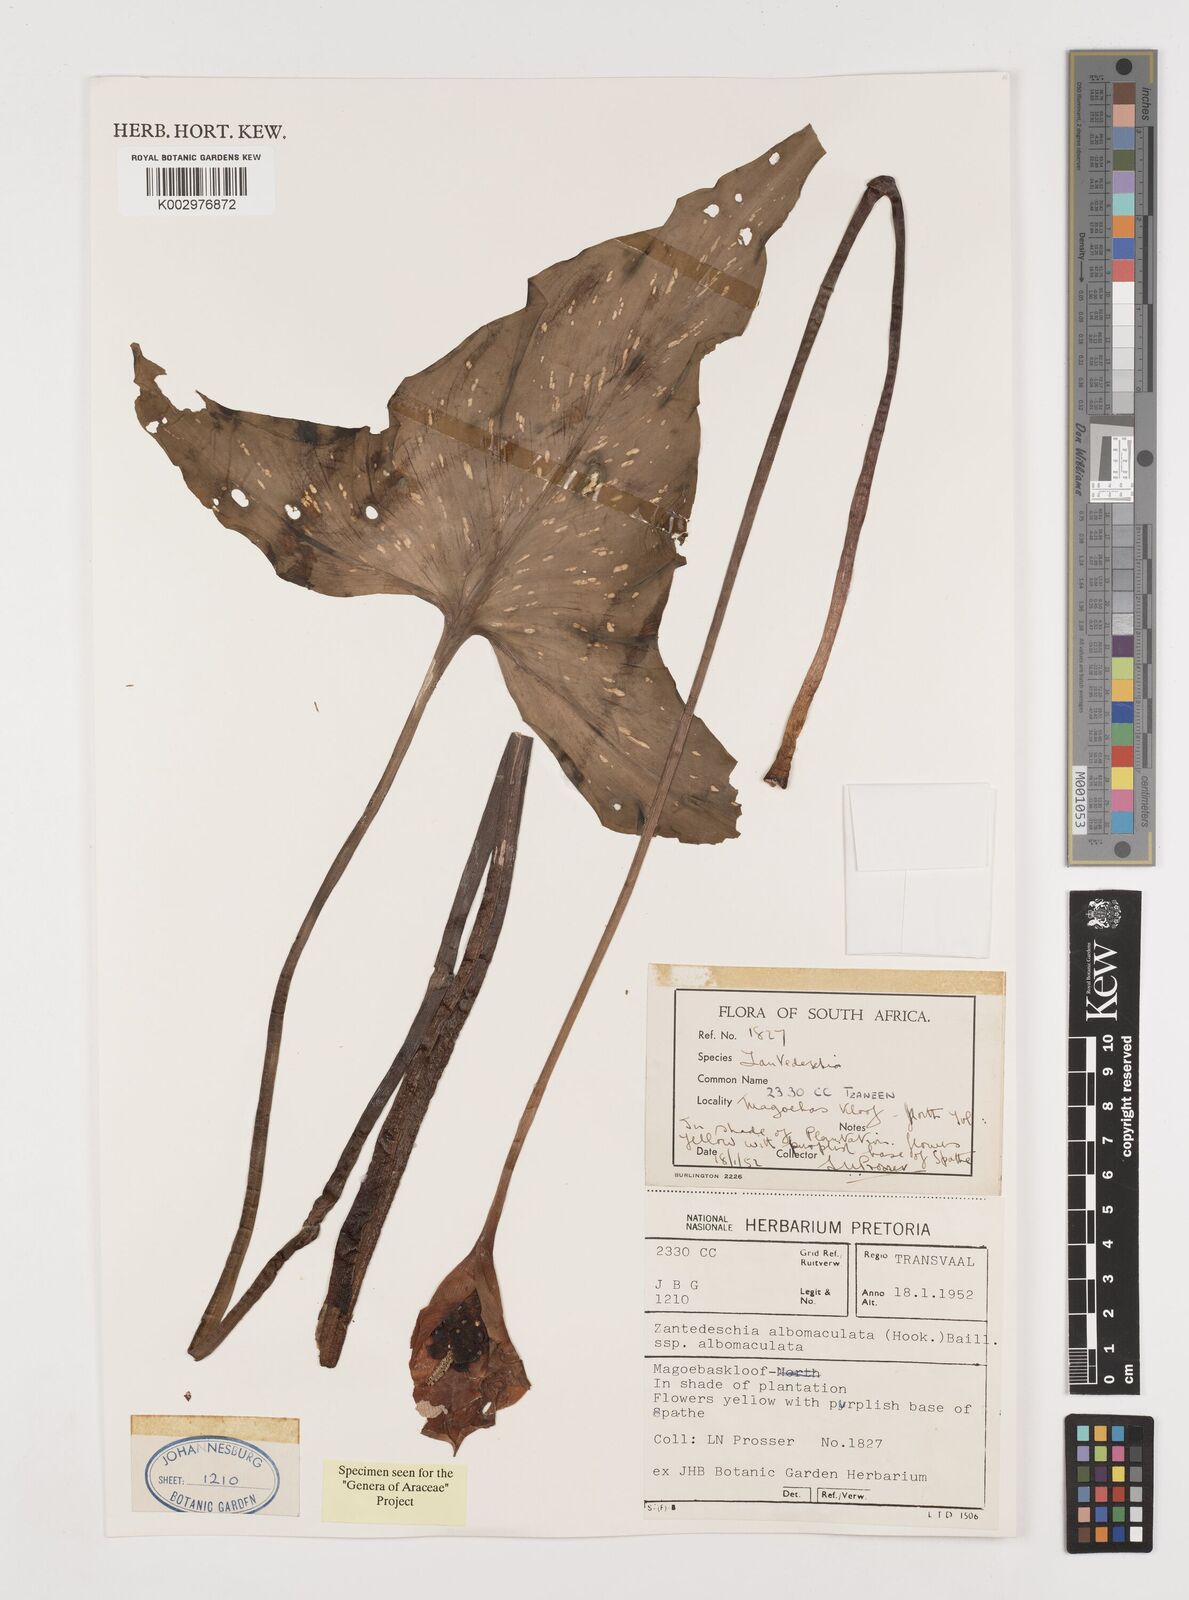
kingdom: Plantae
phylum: Tracheophyta
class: Liliopsida
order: Alismatales
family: Araceae
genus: Zantedeschia
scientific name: Zantedeschia albomaculata
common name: Spotted calla lily
